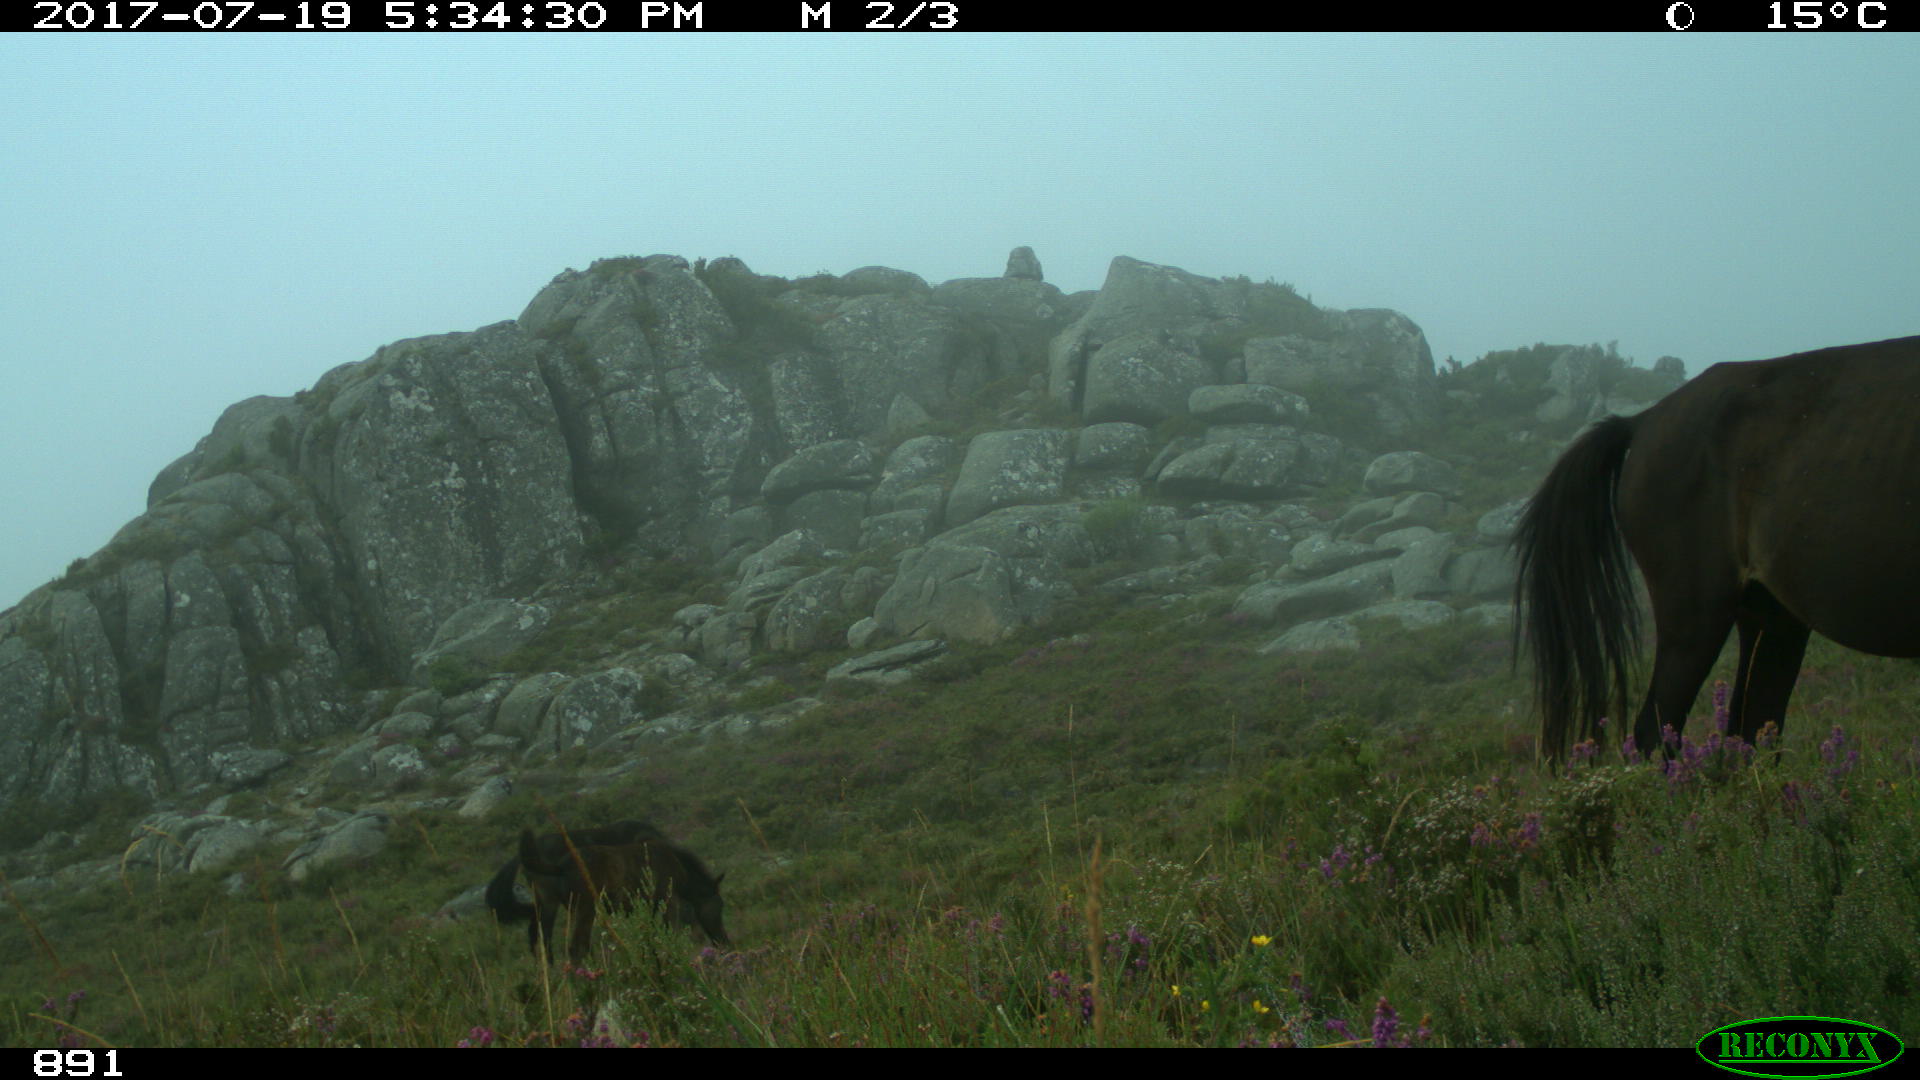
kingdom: Animalia
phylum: Chordata
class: Mammalia
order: Perissodactyla
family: Equidae
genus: Equus
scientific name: Equus caballus
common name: Horse
